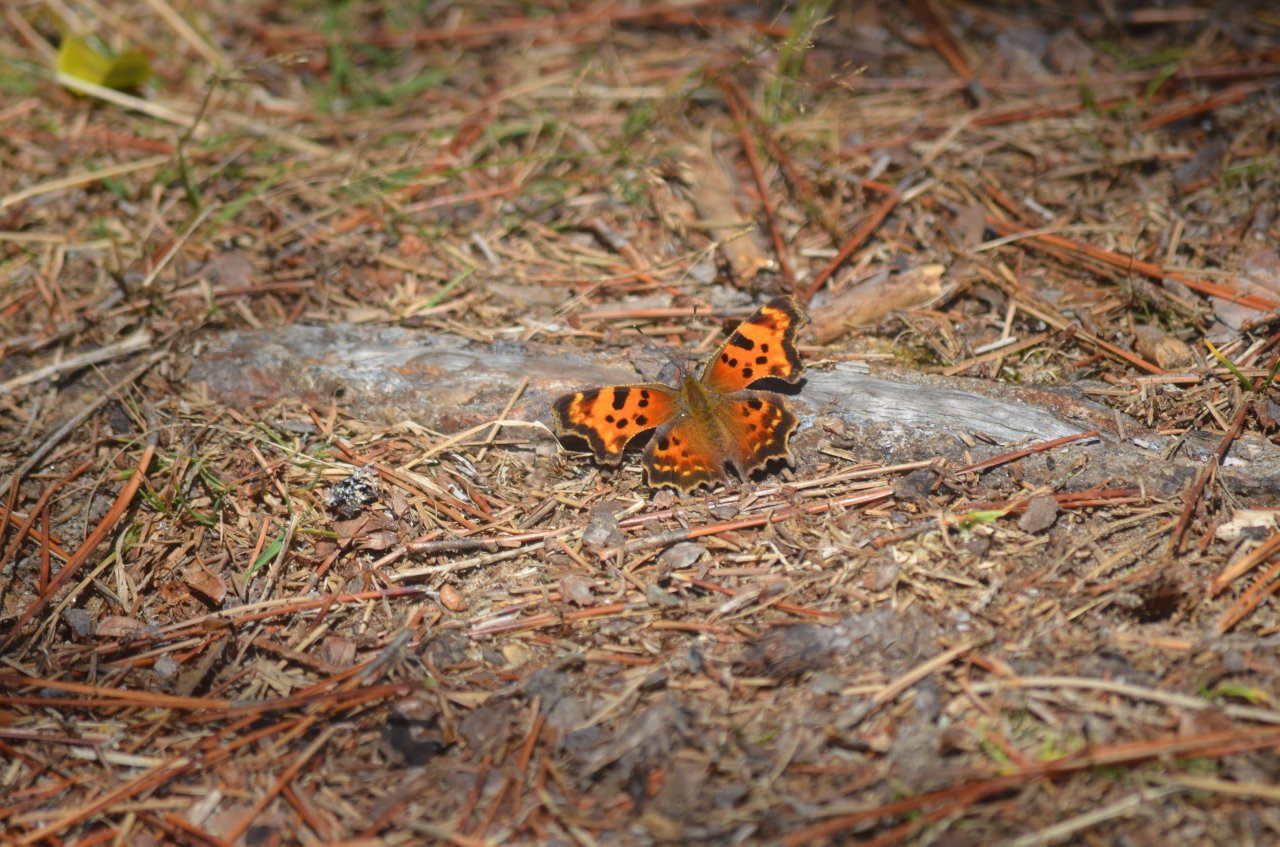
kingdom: Animalia
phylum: Arthropoda
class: Insecta
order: Lepidoptera
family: Nymphalidae
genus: Polygonia
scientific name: Polygonia faunus
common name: Green Comma
